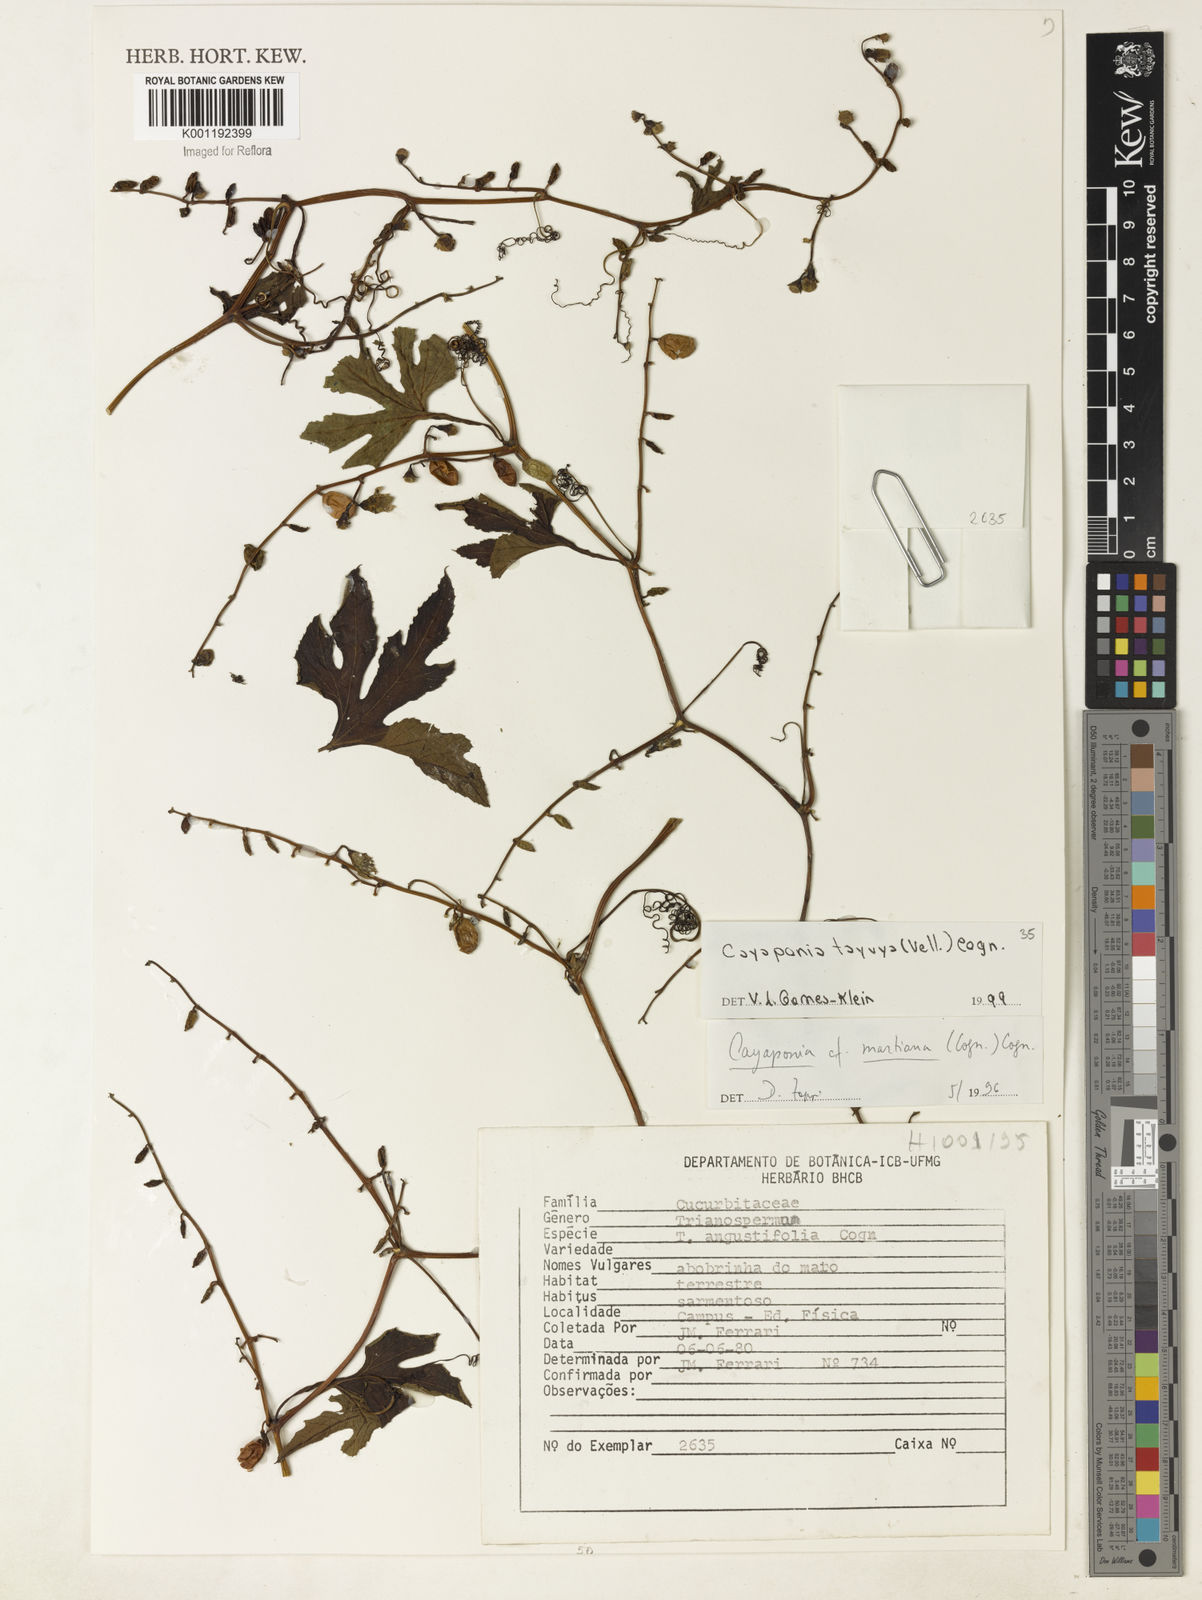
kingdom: Plantae
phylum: Tracheophyta
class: Magnoliopsida
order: Cucurbitales
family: Cucurbitaceae
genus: Cayaponia
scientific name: Cayaponia tayuya
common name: Tayuya
